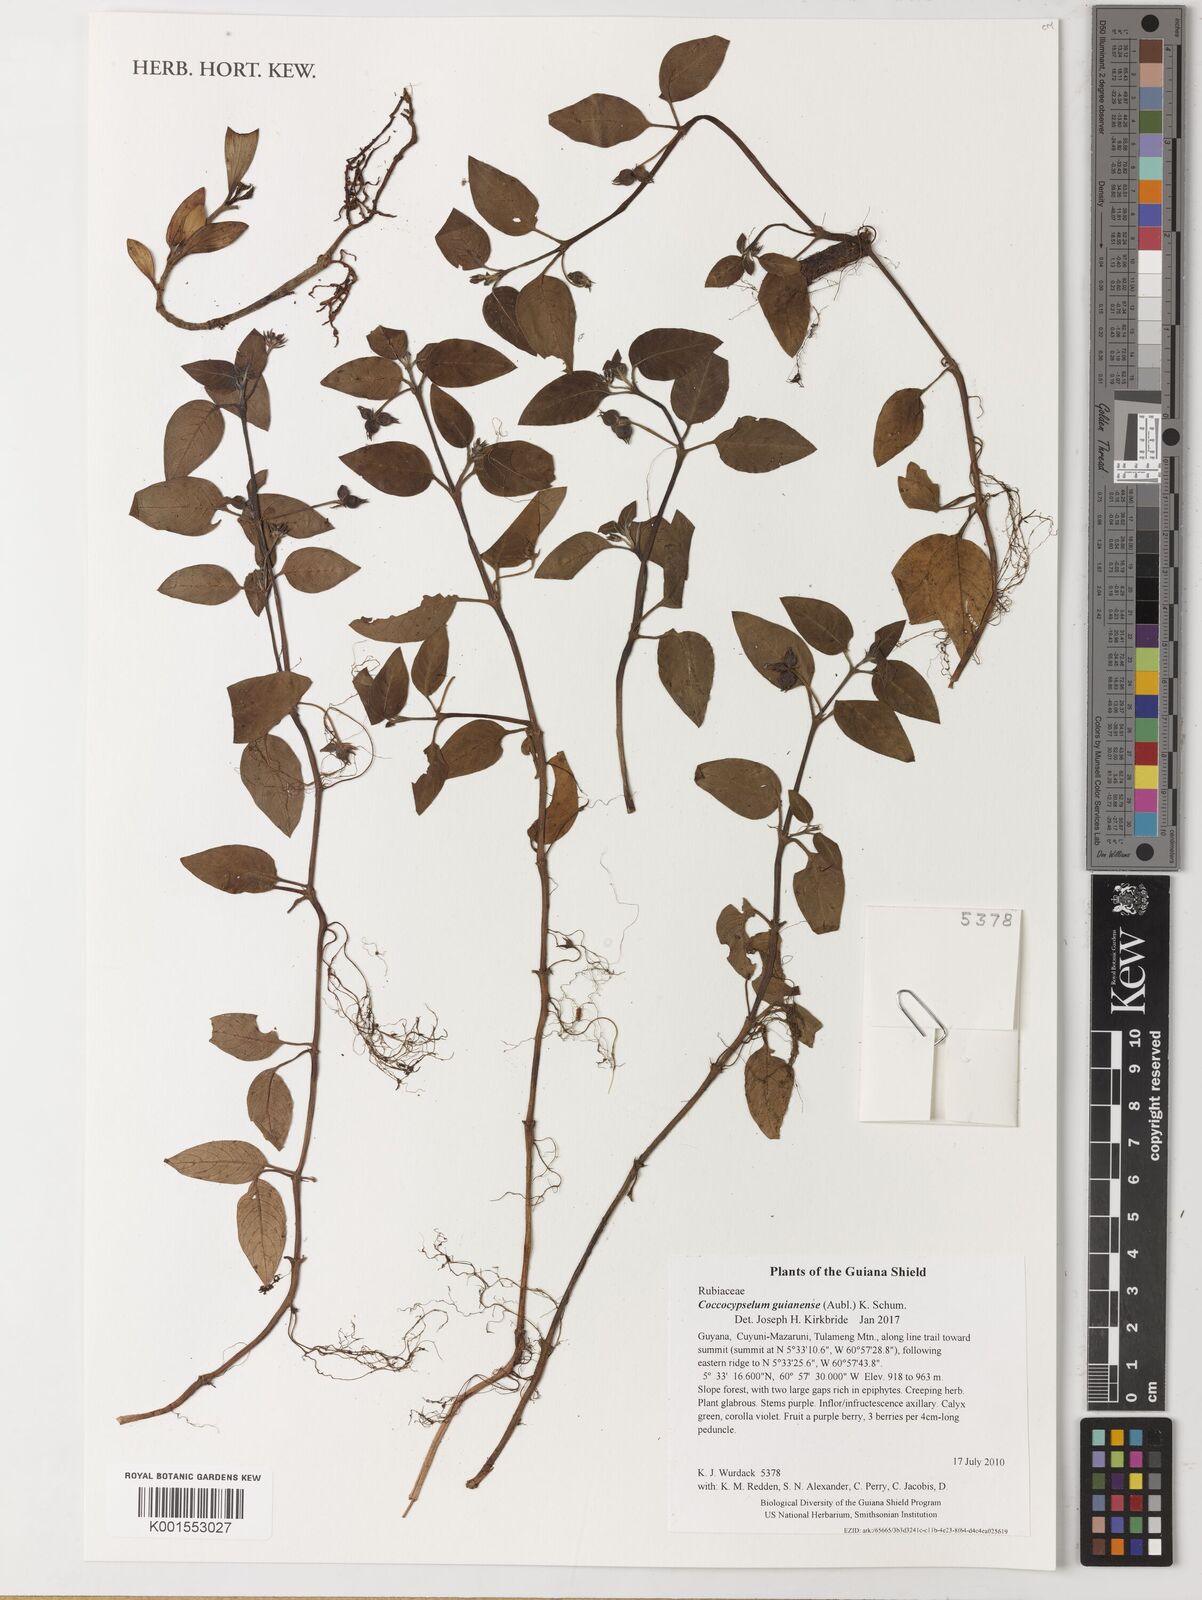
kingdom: Plantae
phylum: Tracheophyta
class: Magnoliopsida
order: Gentianales
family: Rubiaceae
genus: Coccocypselum
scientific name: Coccocypselum guianense
